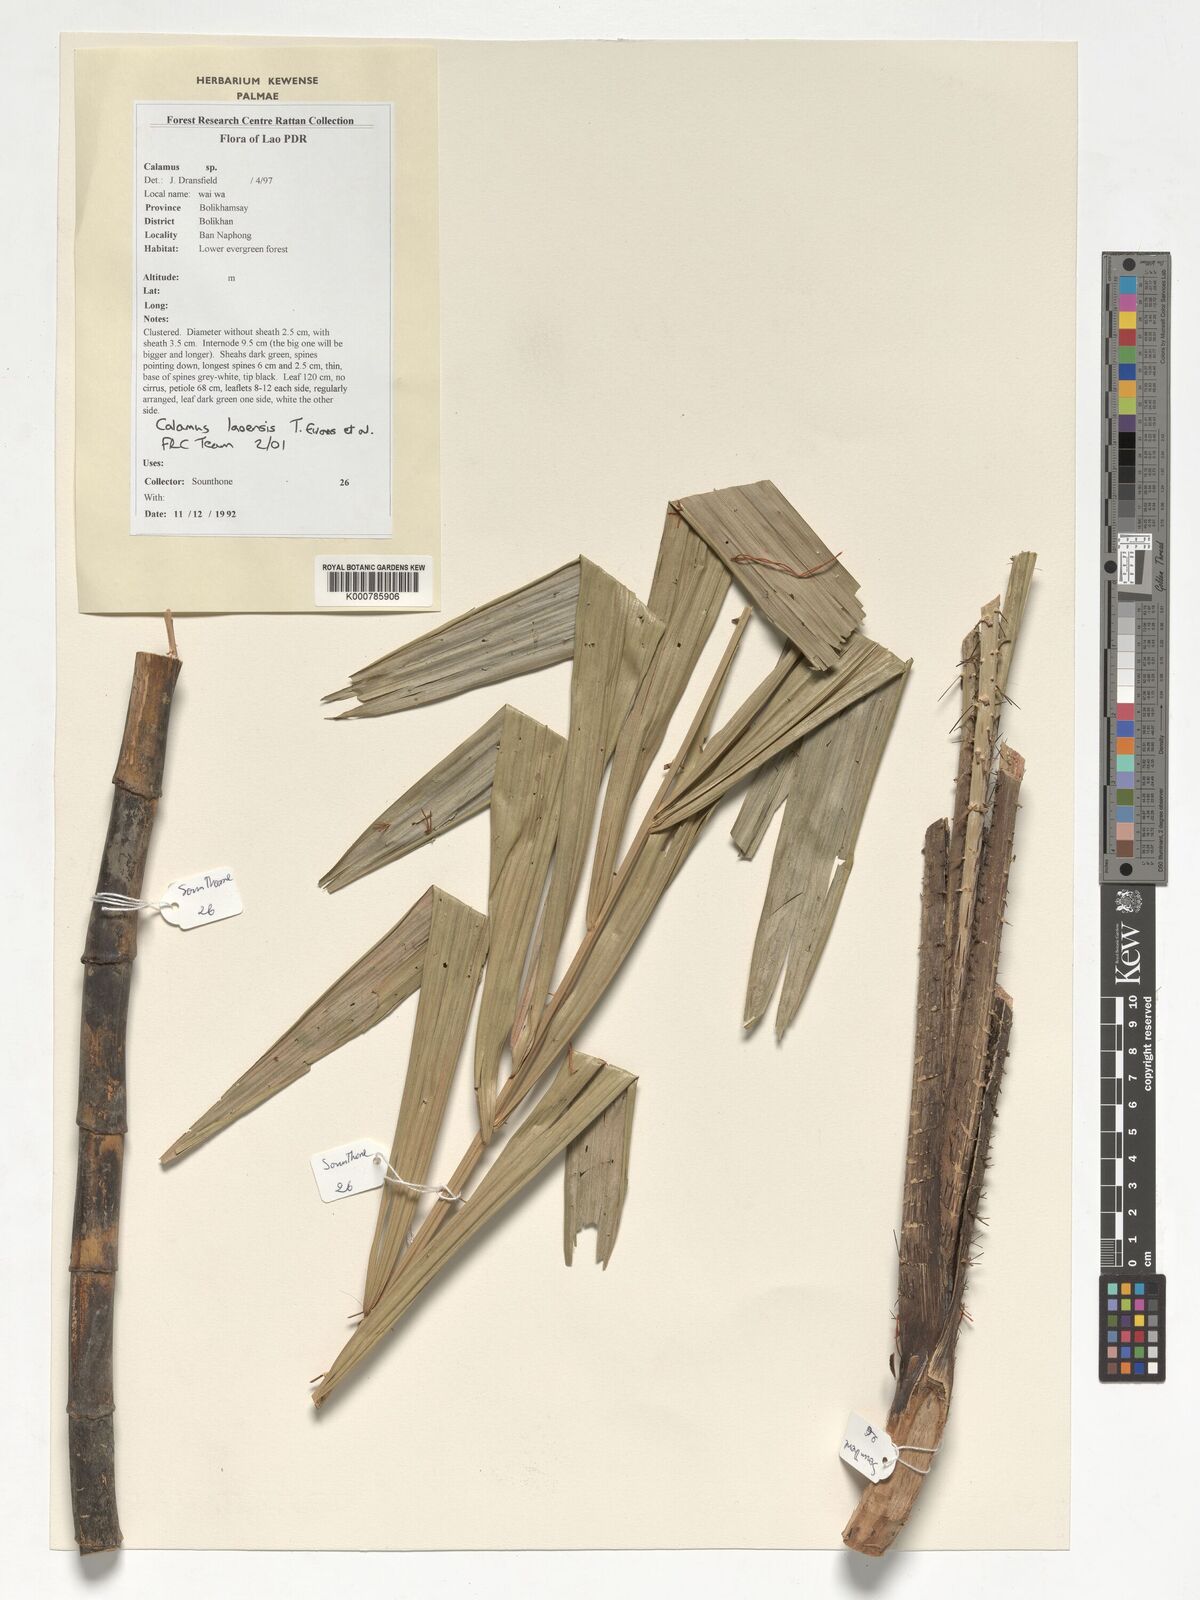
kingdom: Plantae
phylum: Tracheophyta
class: Liliopsida
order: Arecales
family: Arecaceae
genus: Calamus
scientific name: Calamus laoensis
